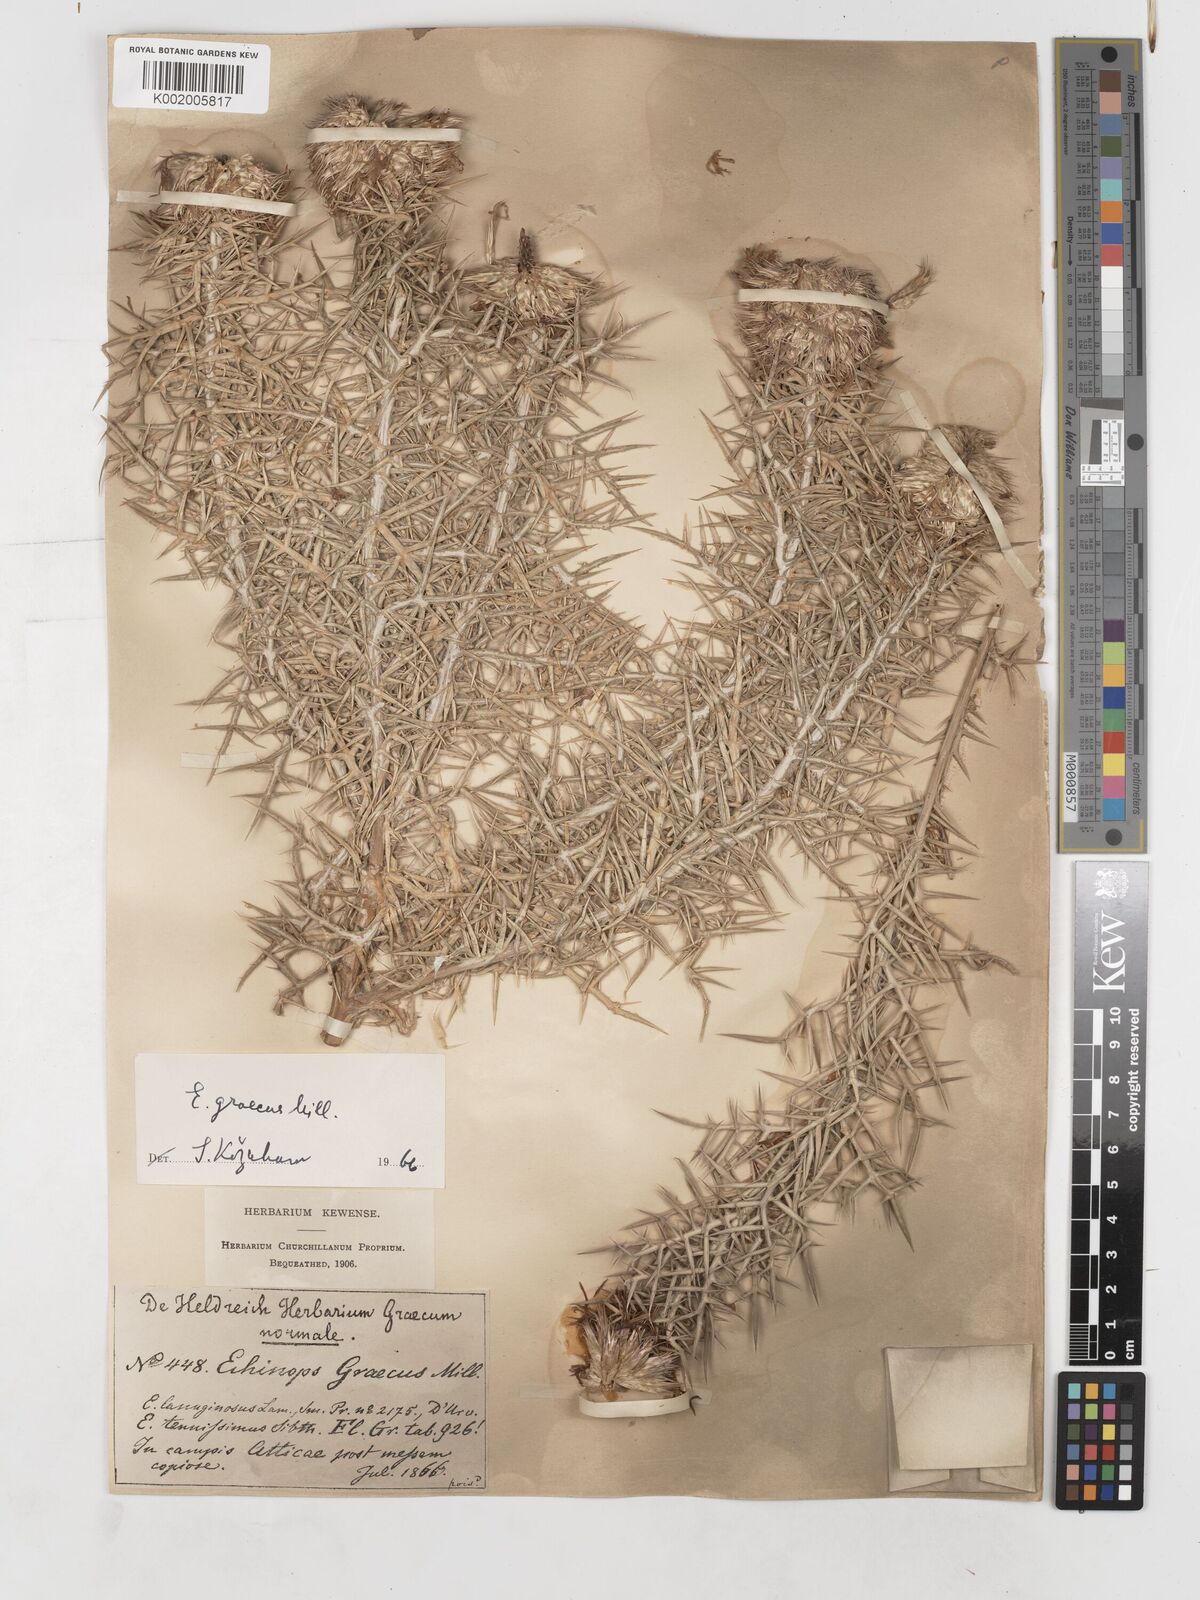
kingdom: Plantae
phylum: Tracheophyta
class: Magnoliopsida
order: Asterales
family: Asteraceae
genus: Echinops
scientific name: Echinops graecus
